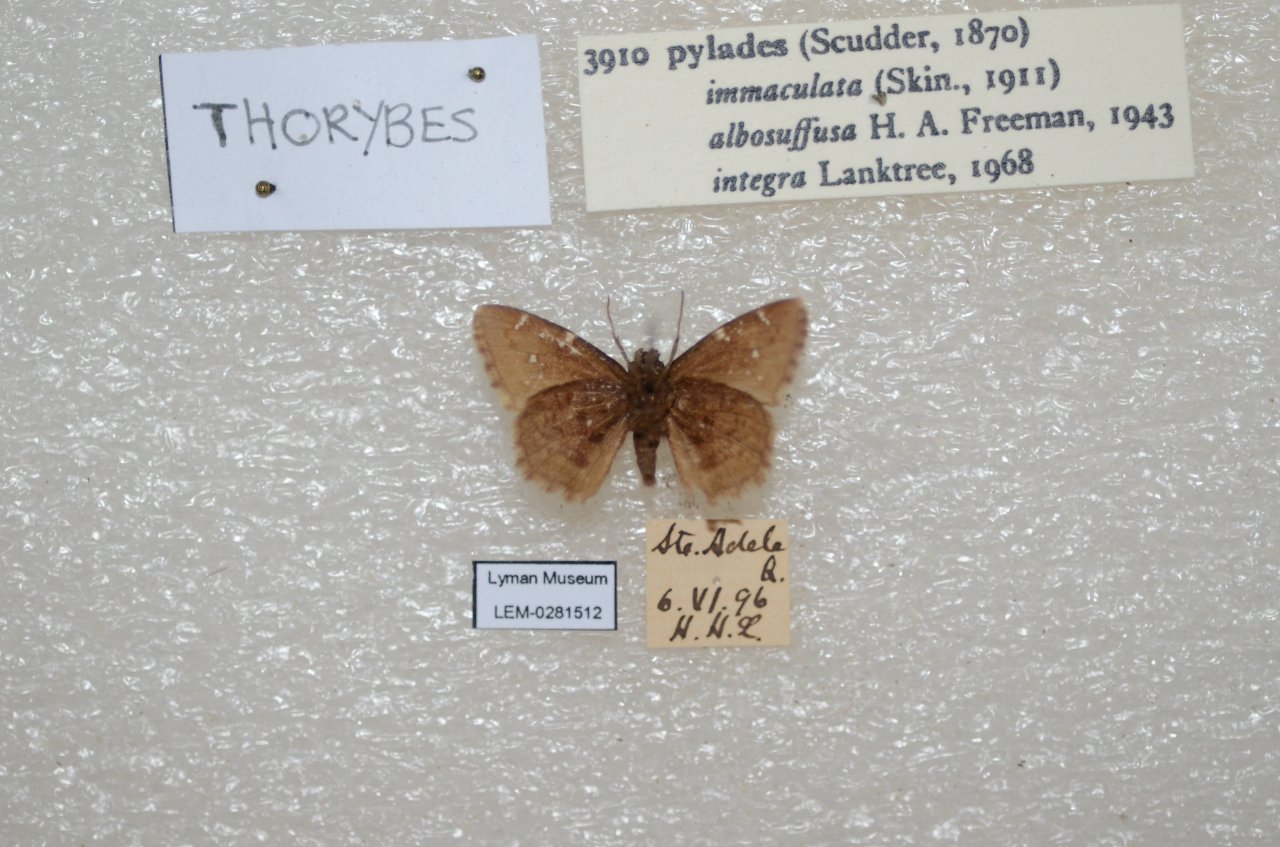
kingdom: Animalia
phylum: Arthropoda
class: Insecta
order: Lepidoptera
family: Hesperiidae
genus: Autochton
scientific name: Autochton
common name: Northern Cloudywing
